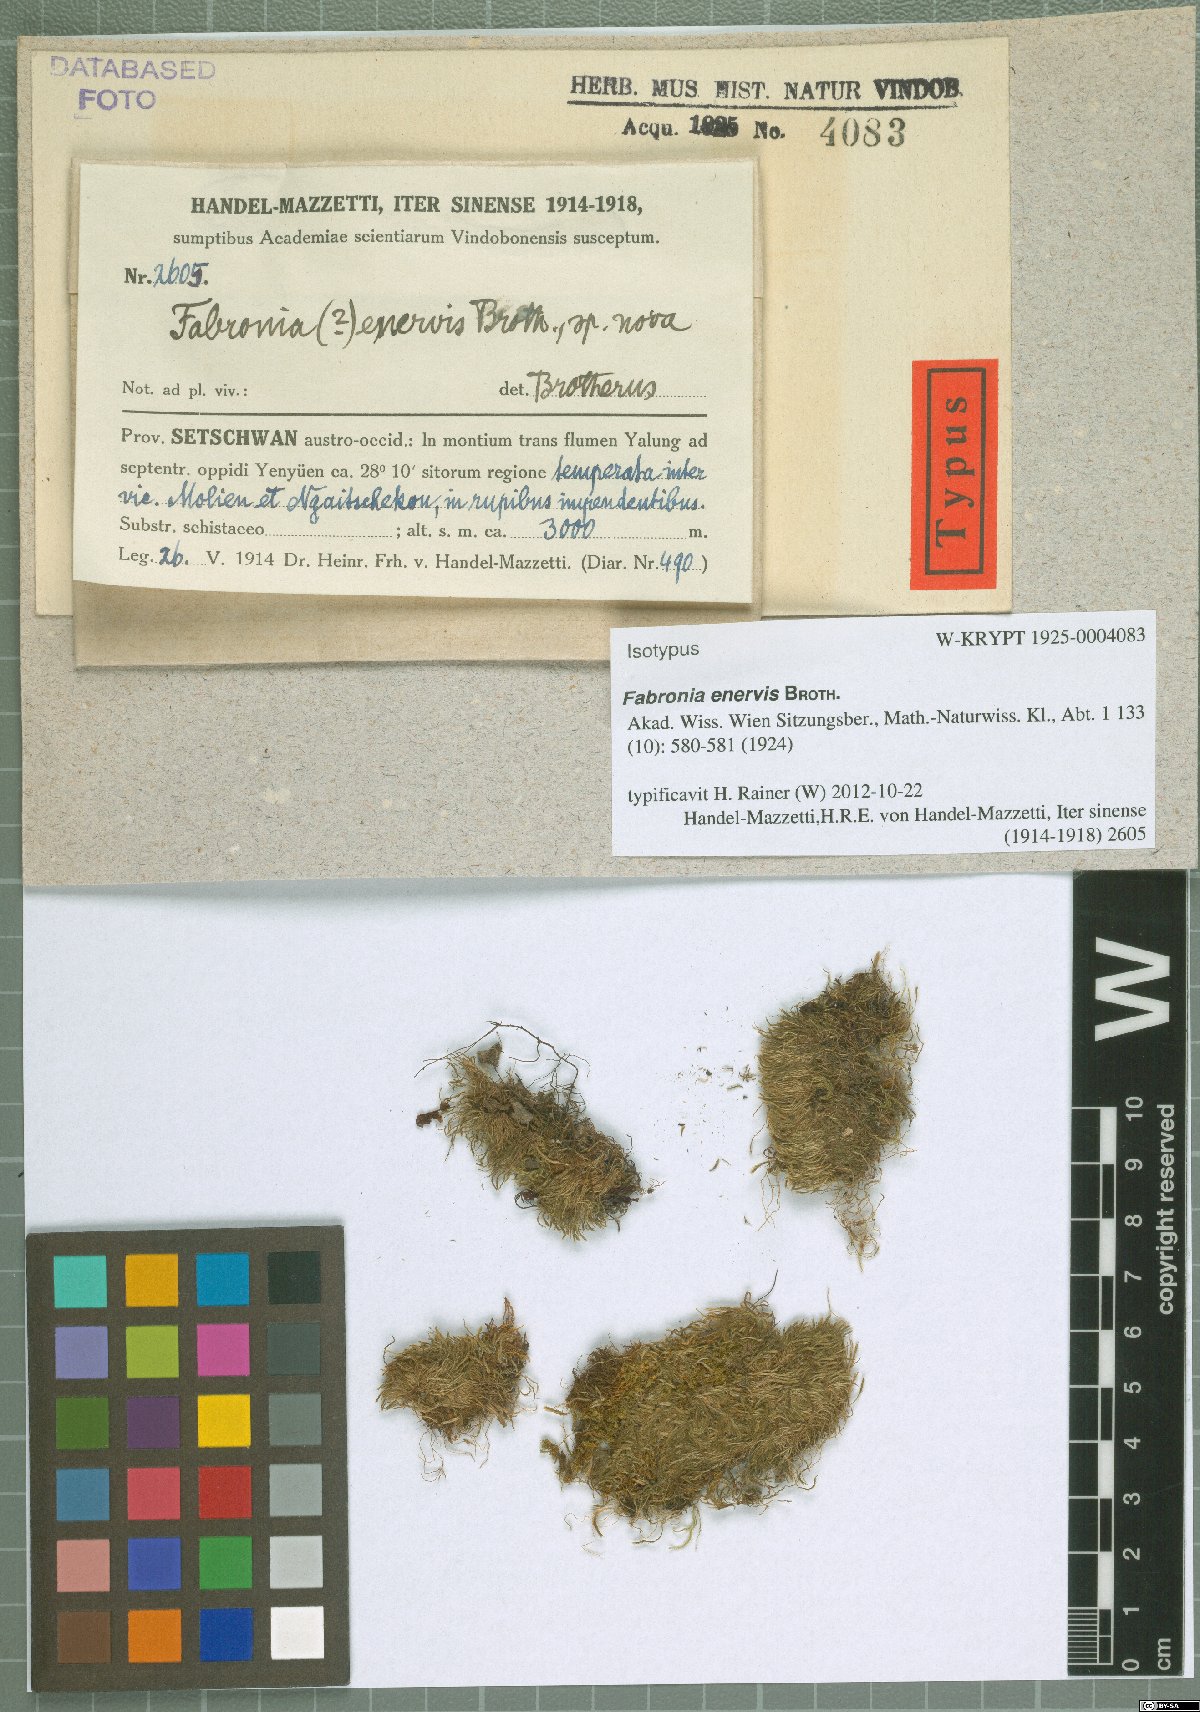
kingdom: Plantae
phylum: Bryophyta
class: Bryopsida
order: Hypnales
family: Plagiotheciaceae
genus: Struckia
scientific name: Struckia enervis
